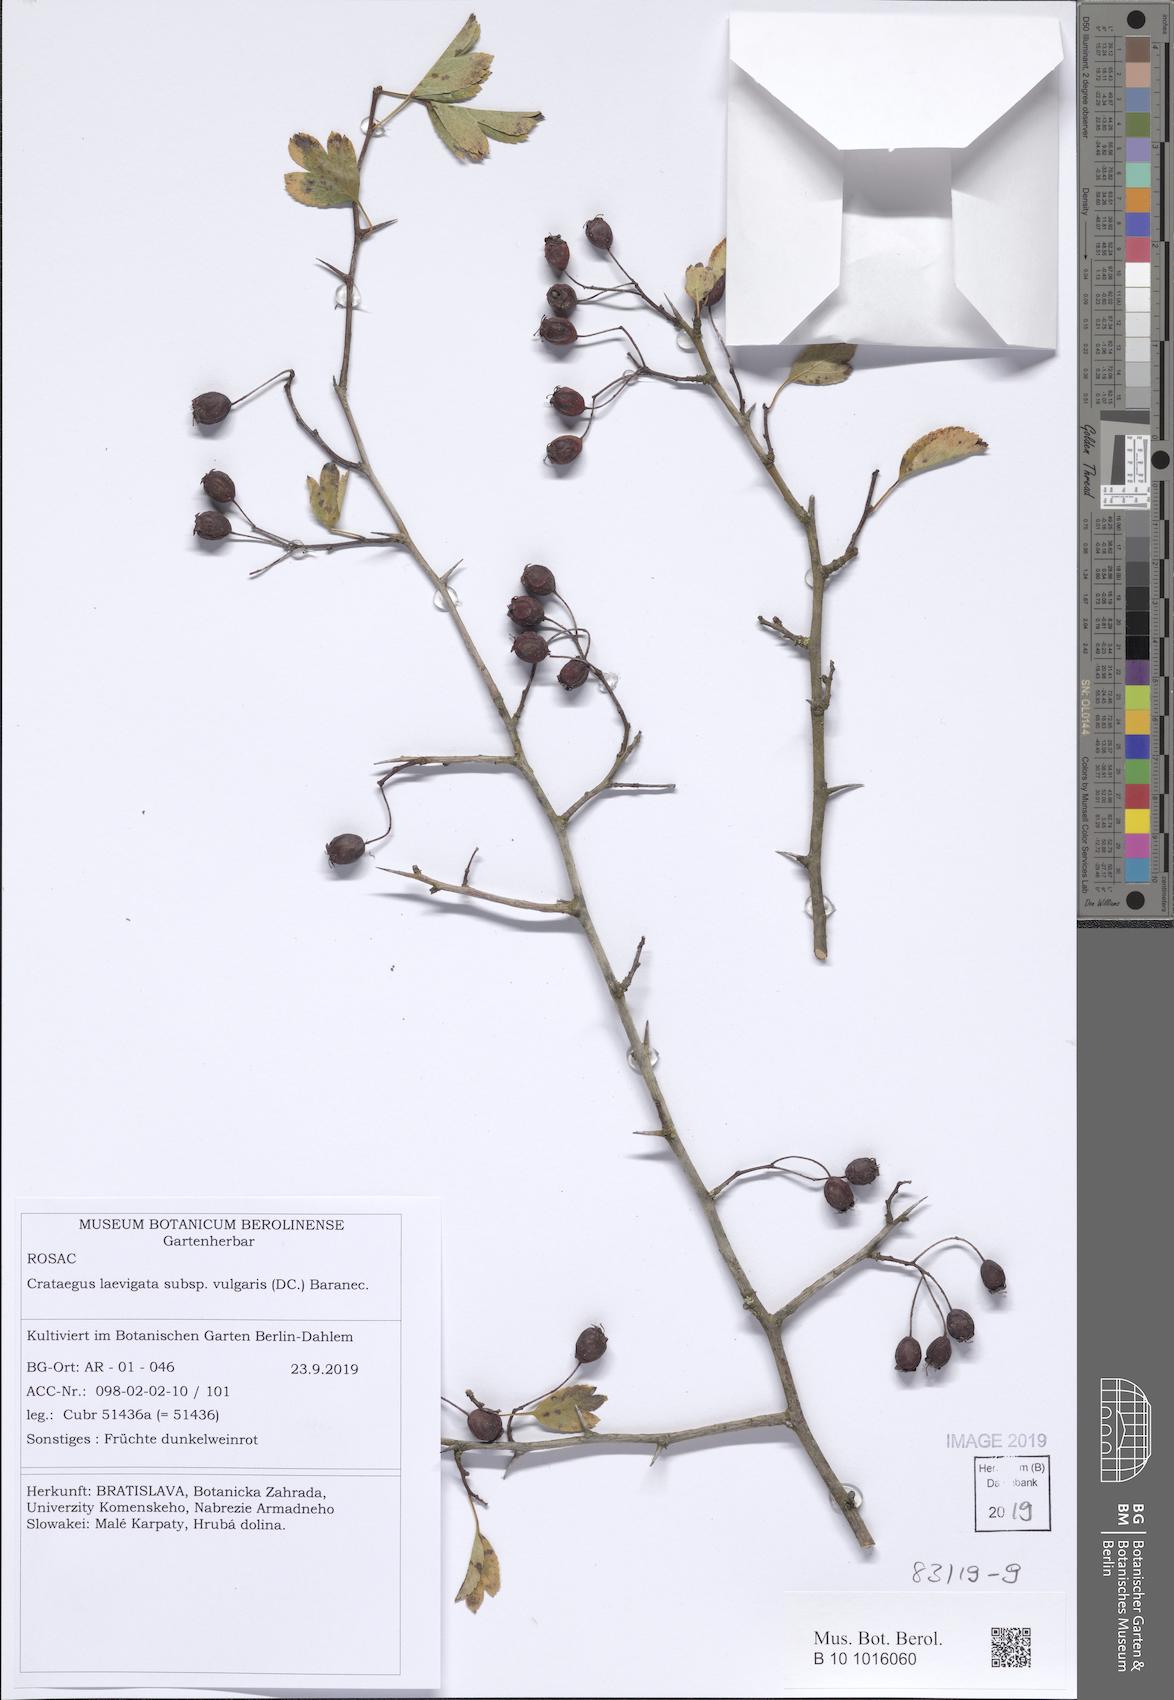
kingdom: Plantae
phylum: Tracheophyta
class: Magnoliopsida
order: Rosales
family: Rosaceae
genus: Crataegus
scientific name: Crataegus laevigata
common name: Midland hawthorn
